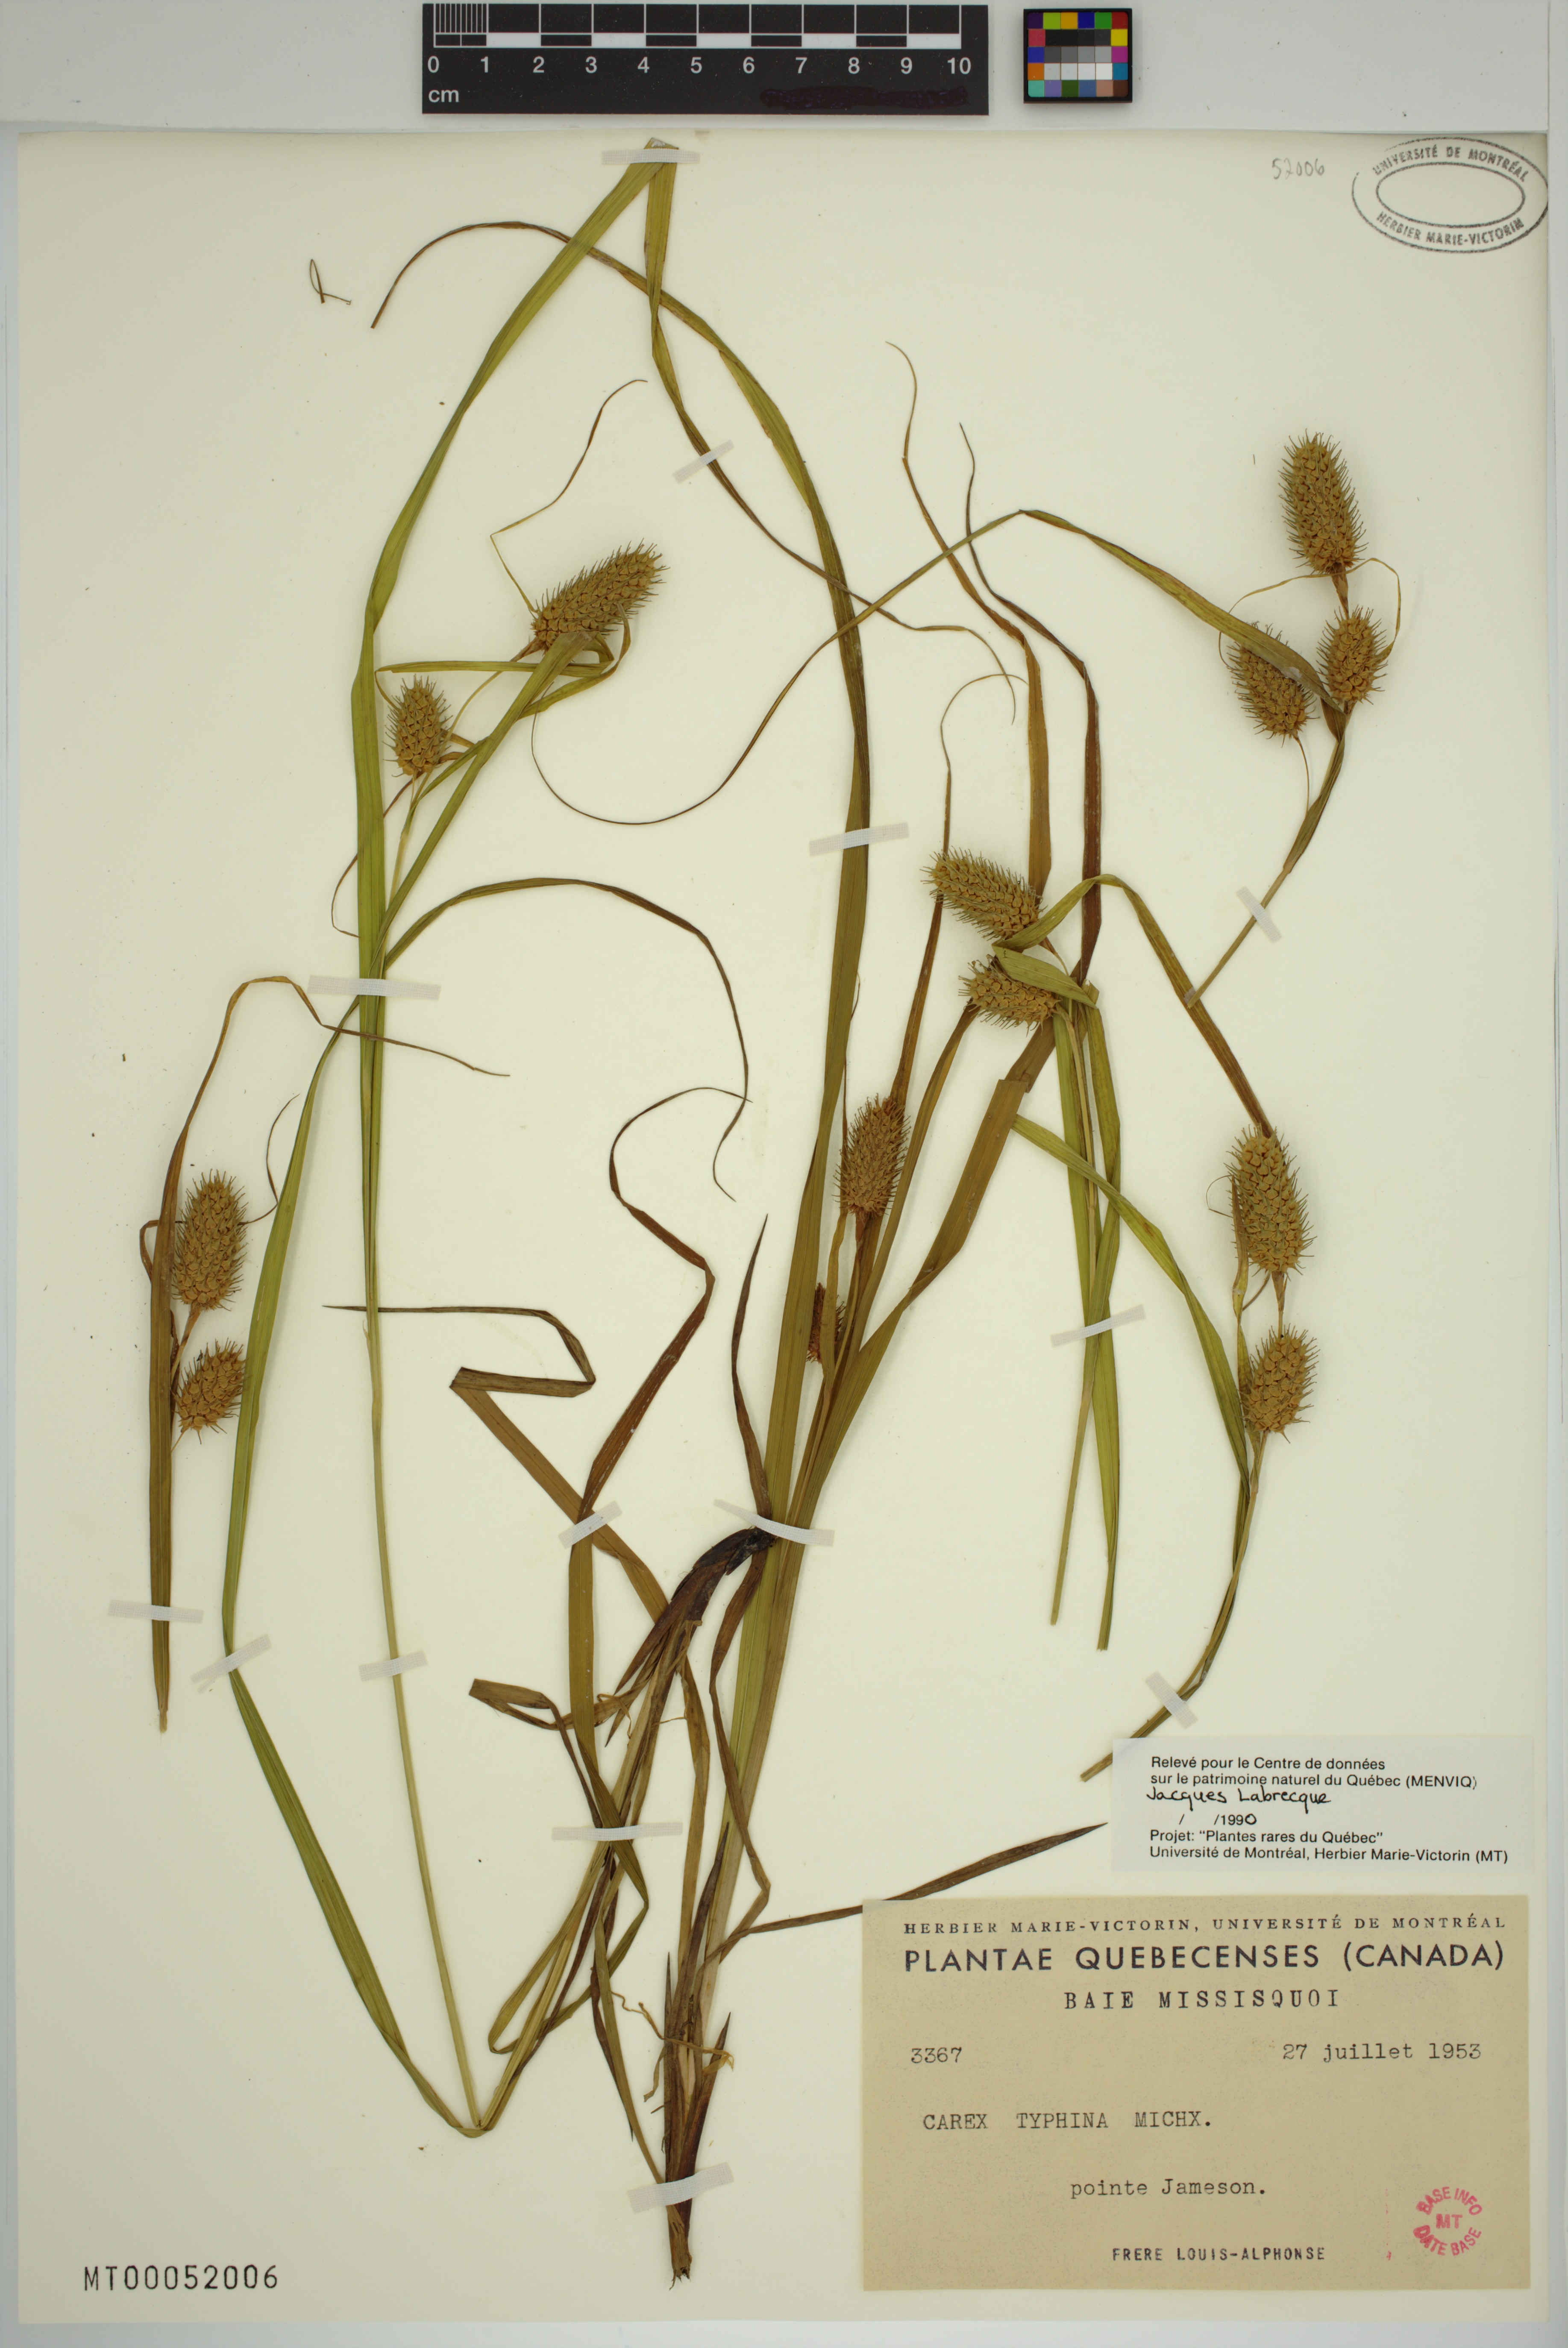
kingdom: Plantae
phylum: Tracheophyta
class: Liliopsida
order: Poales
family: Cyperaceae
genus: Carex
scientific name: Carex typhina
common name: Cattail sedge
